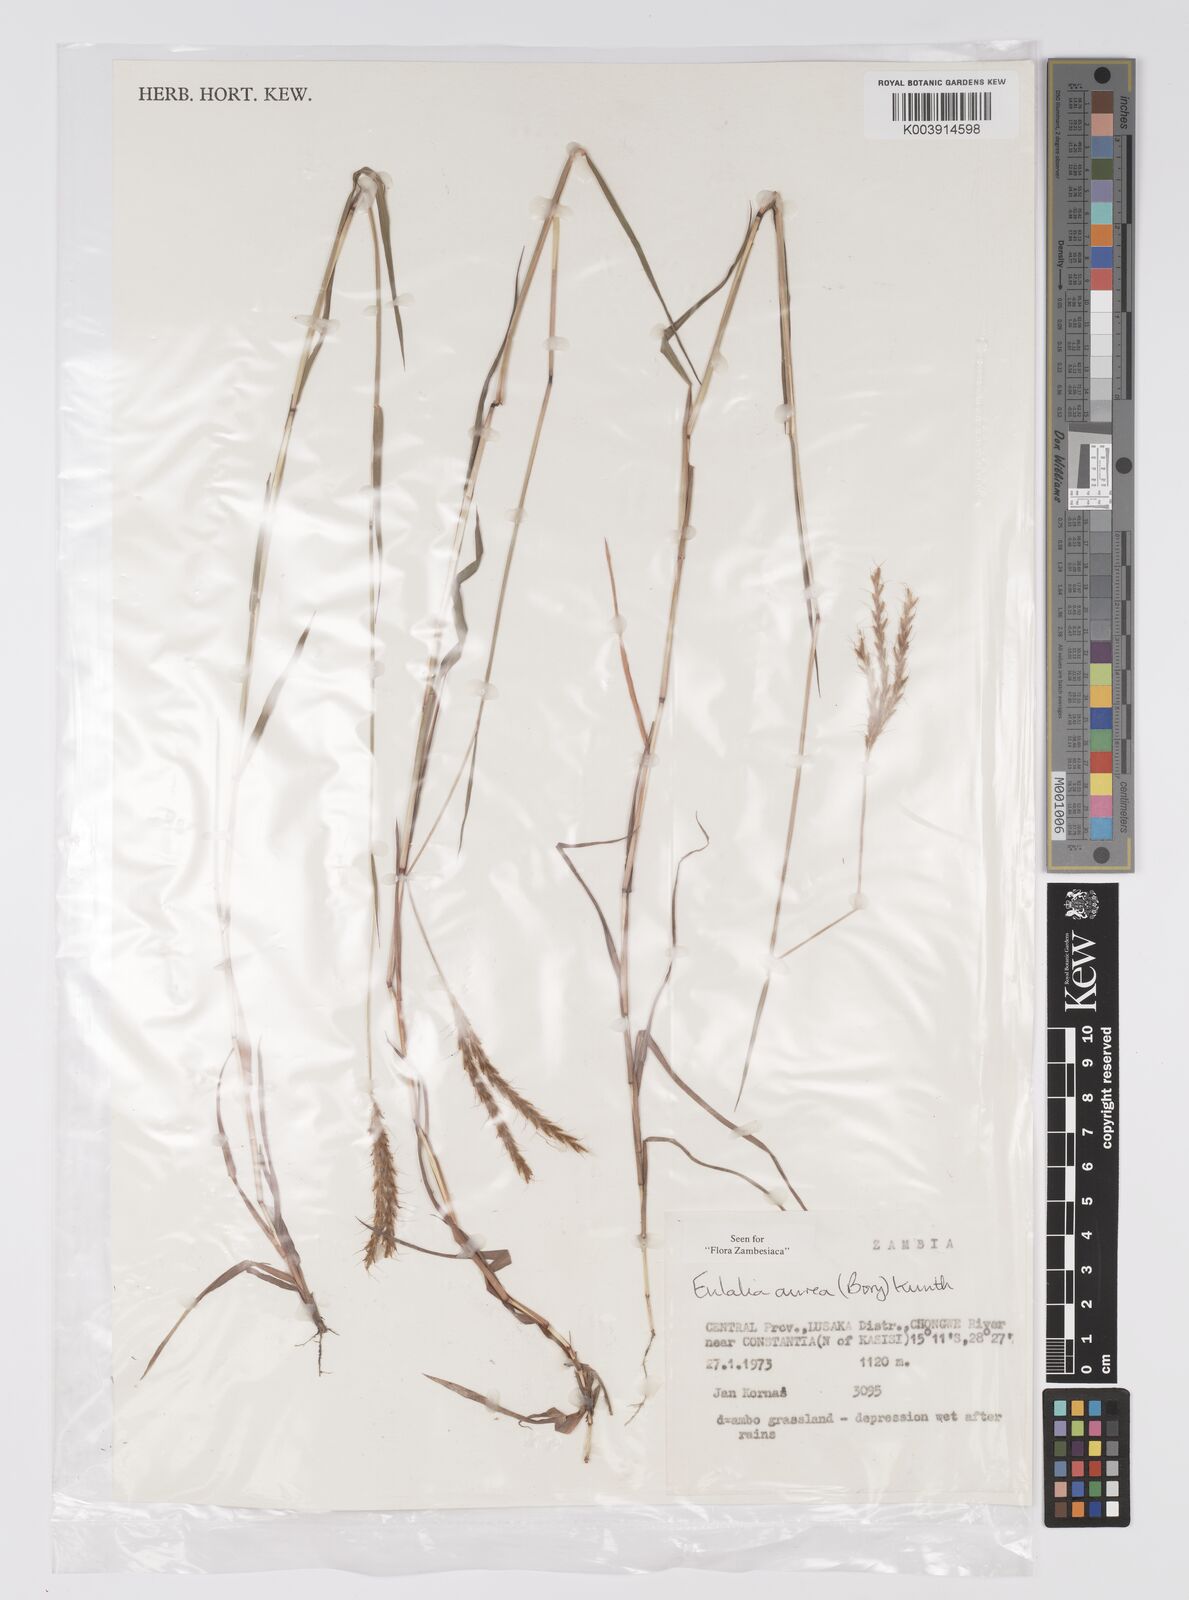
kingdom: Plantae
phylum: Tracheophyta
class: Liliopsida
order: Poales
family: Poaceae
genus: Eulalia
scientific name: Eulalia aurea
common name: Silky browntop
